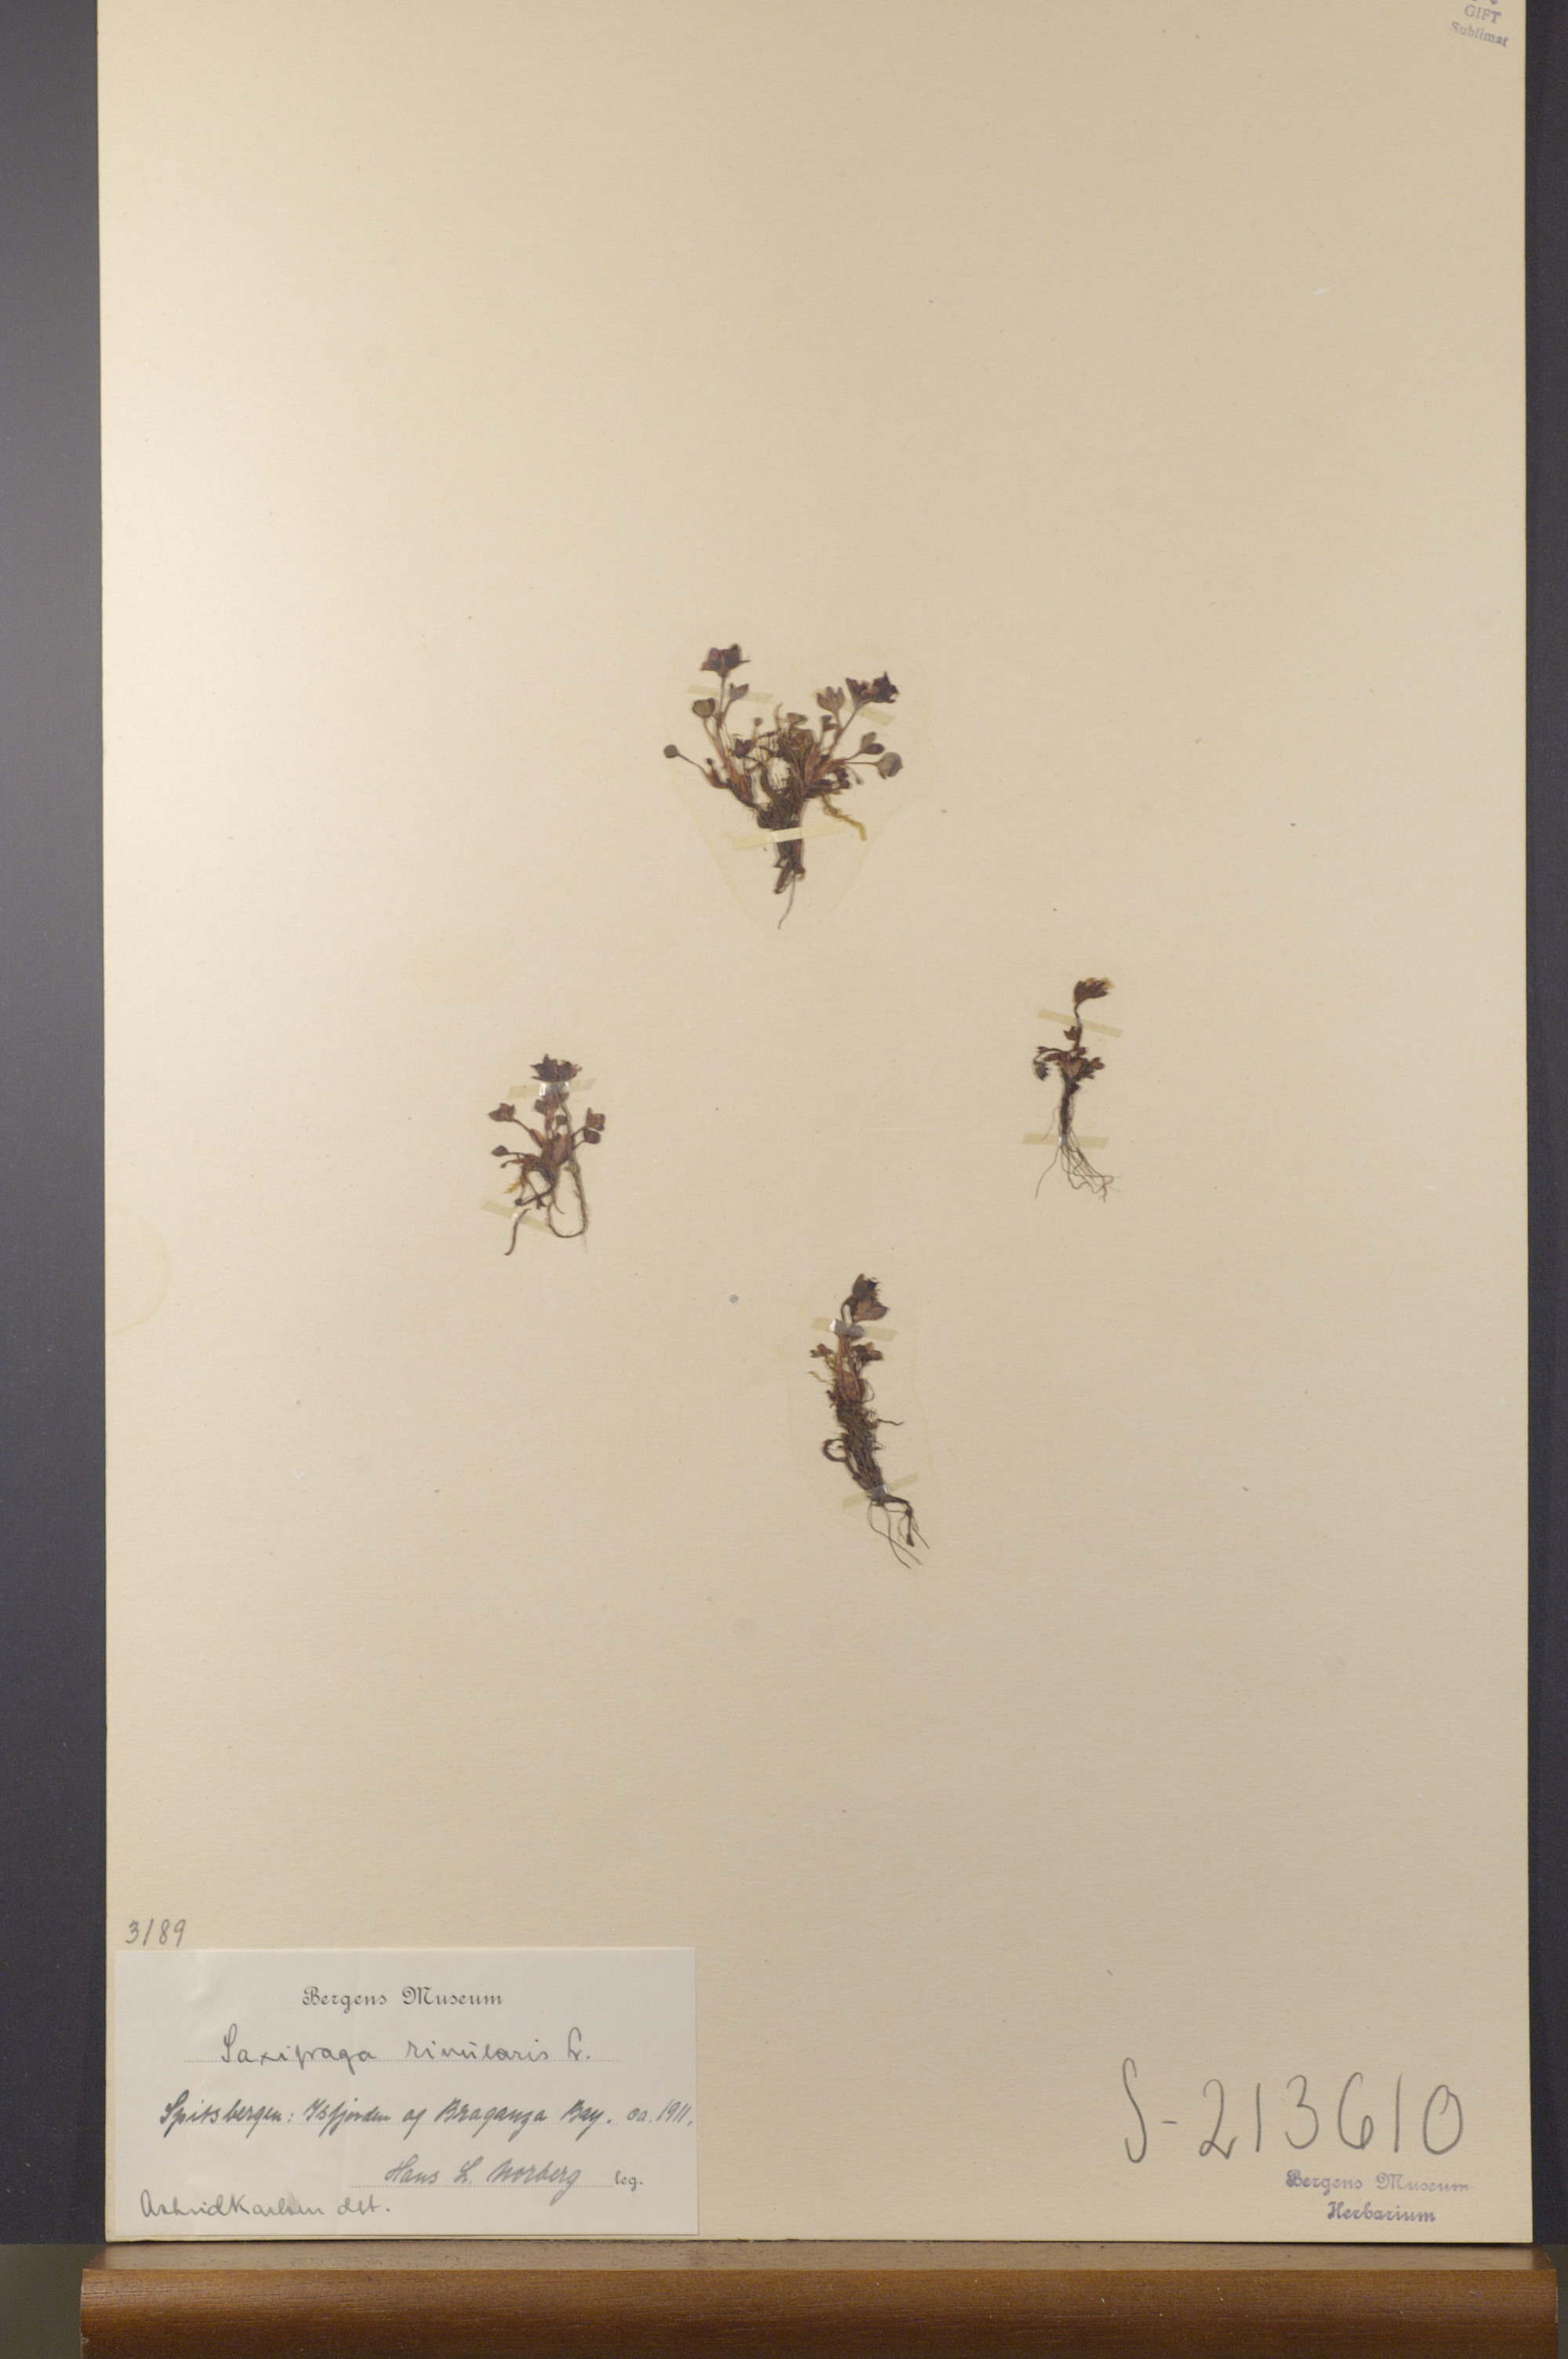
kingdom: Plantae
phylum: Tracheophyta
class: Magnoliopsida
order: Saxifragales
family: Saxifragaceae
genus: Saxifraga
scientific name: Saxifraga rivularis
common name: Highland saxifrage
